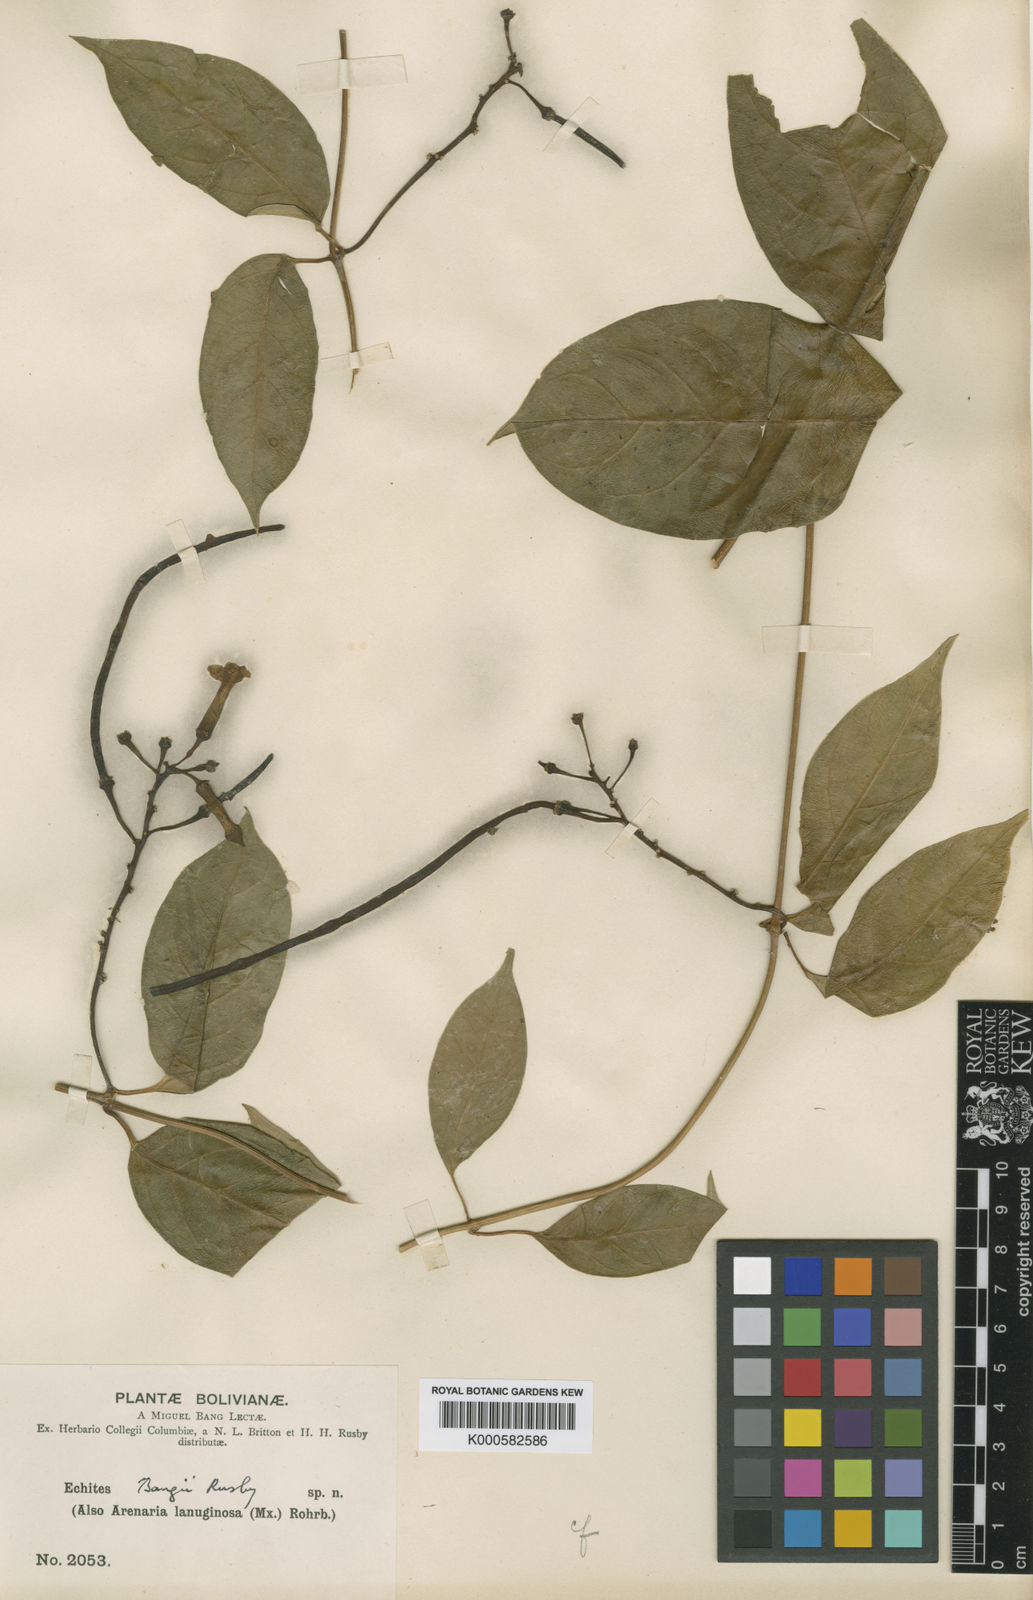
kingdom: Plantae
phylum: Tracheophyta
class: Magnoliopsida
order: Gentianales
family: Apocynaceae
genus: Prestonia
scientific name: Prestonia quinquangularis
